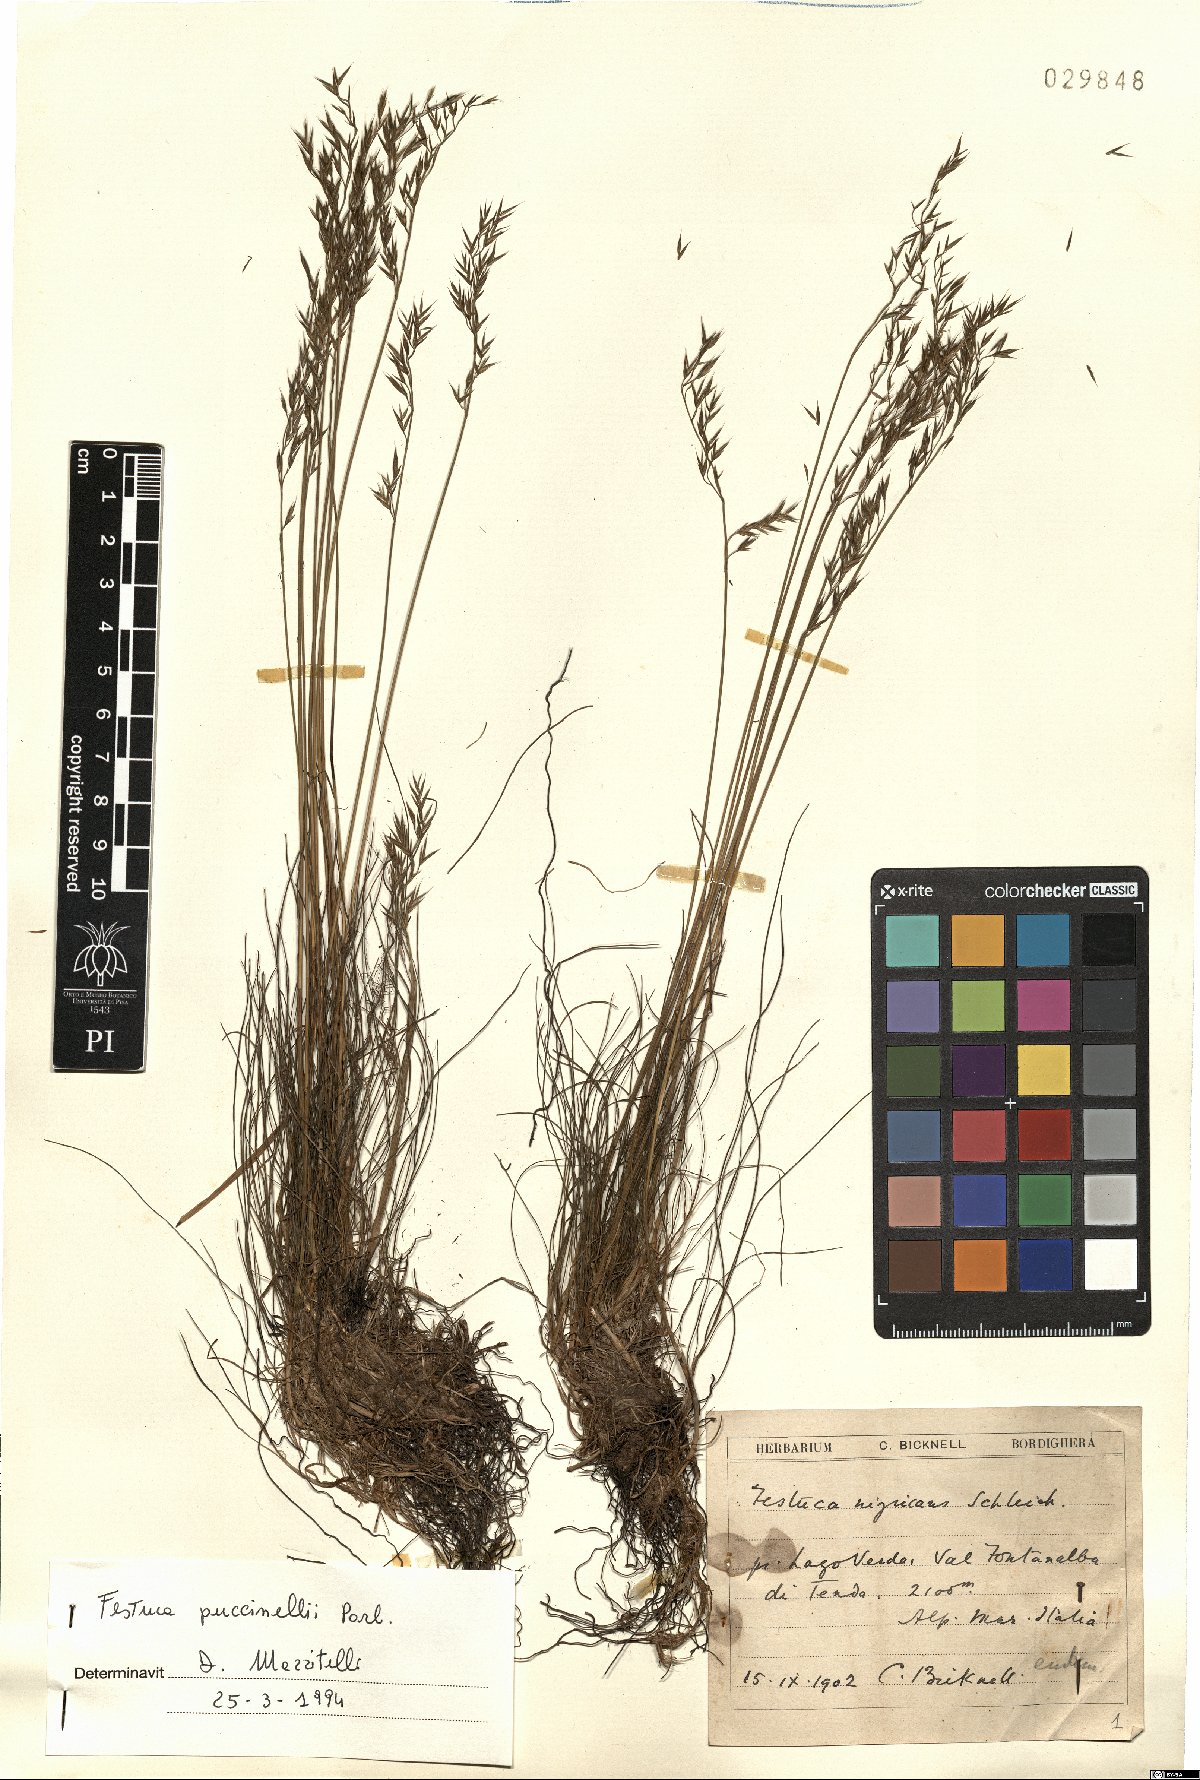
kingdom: Plantae
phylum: Tracheophyta
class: Liliopsida
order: Poales
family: Poaceae
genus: Festuca
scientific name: Festuca puccinellii
